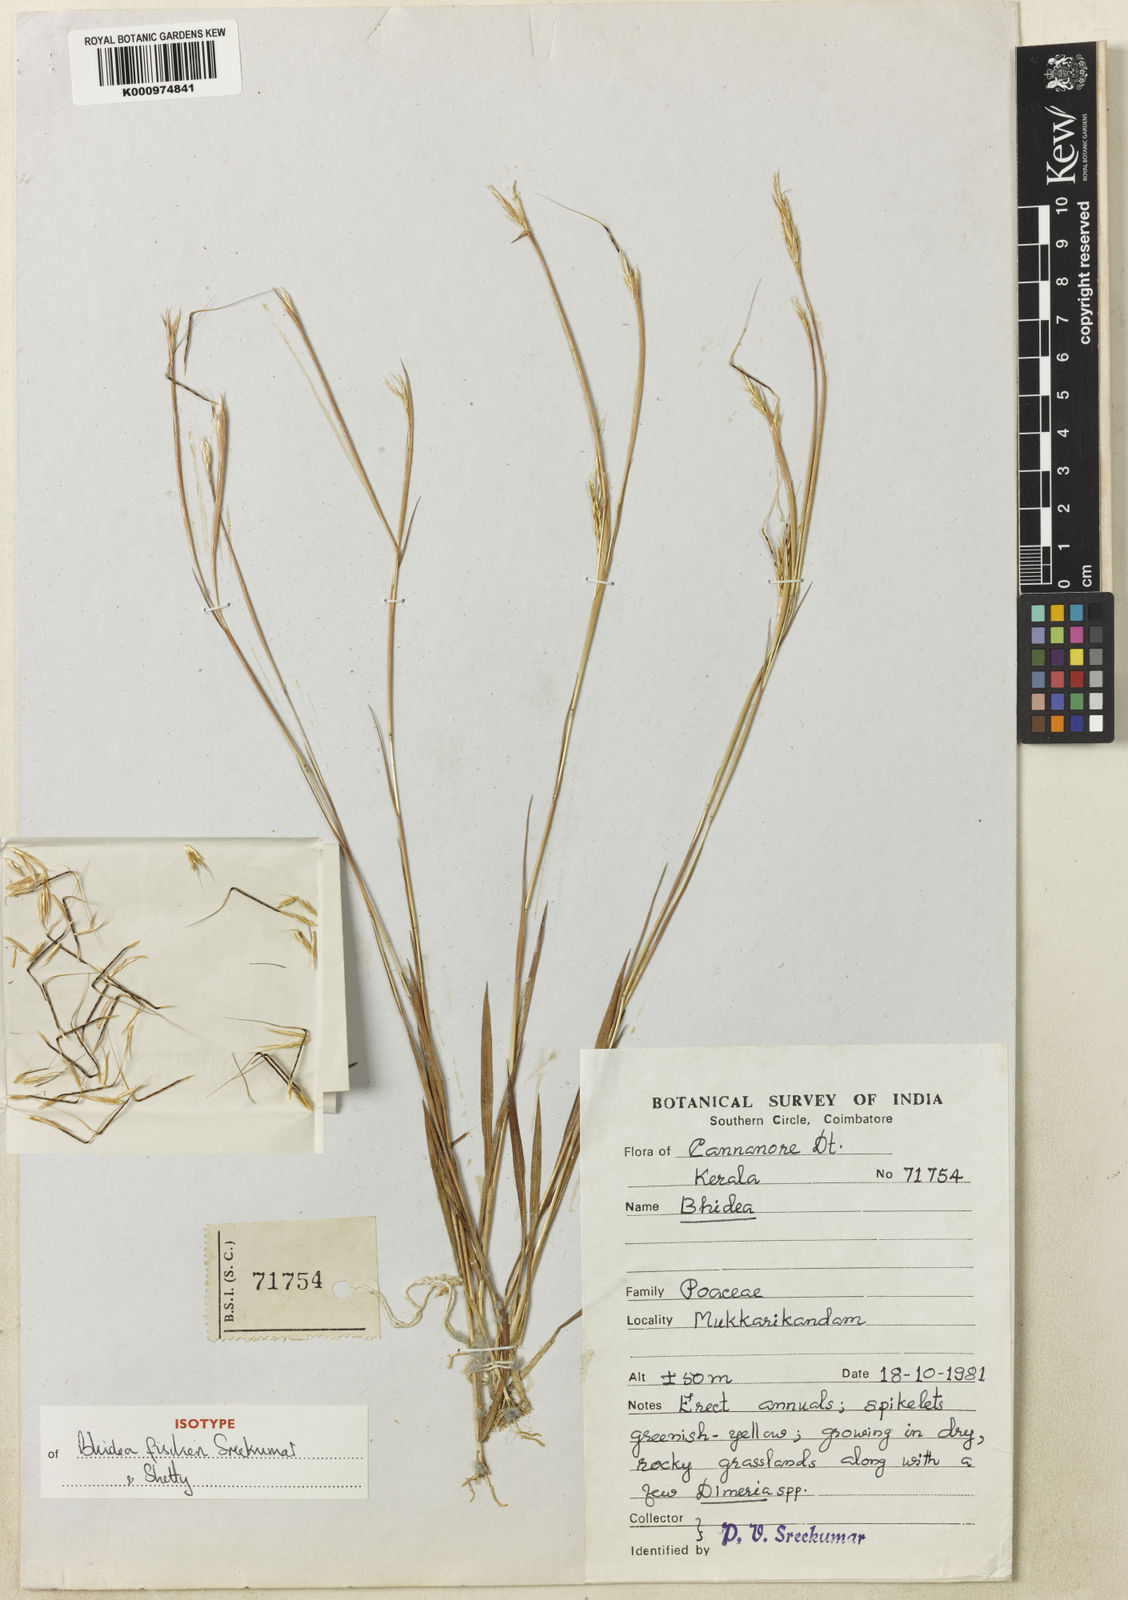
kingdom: Plantae
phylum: Tracheophyta
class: Liliopsida
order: Poales
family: Poaceae
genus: Bhidea
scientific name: Bhidea fischeri
